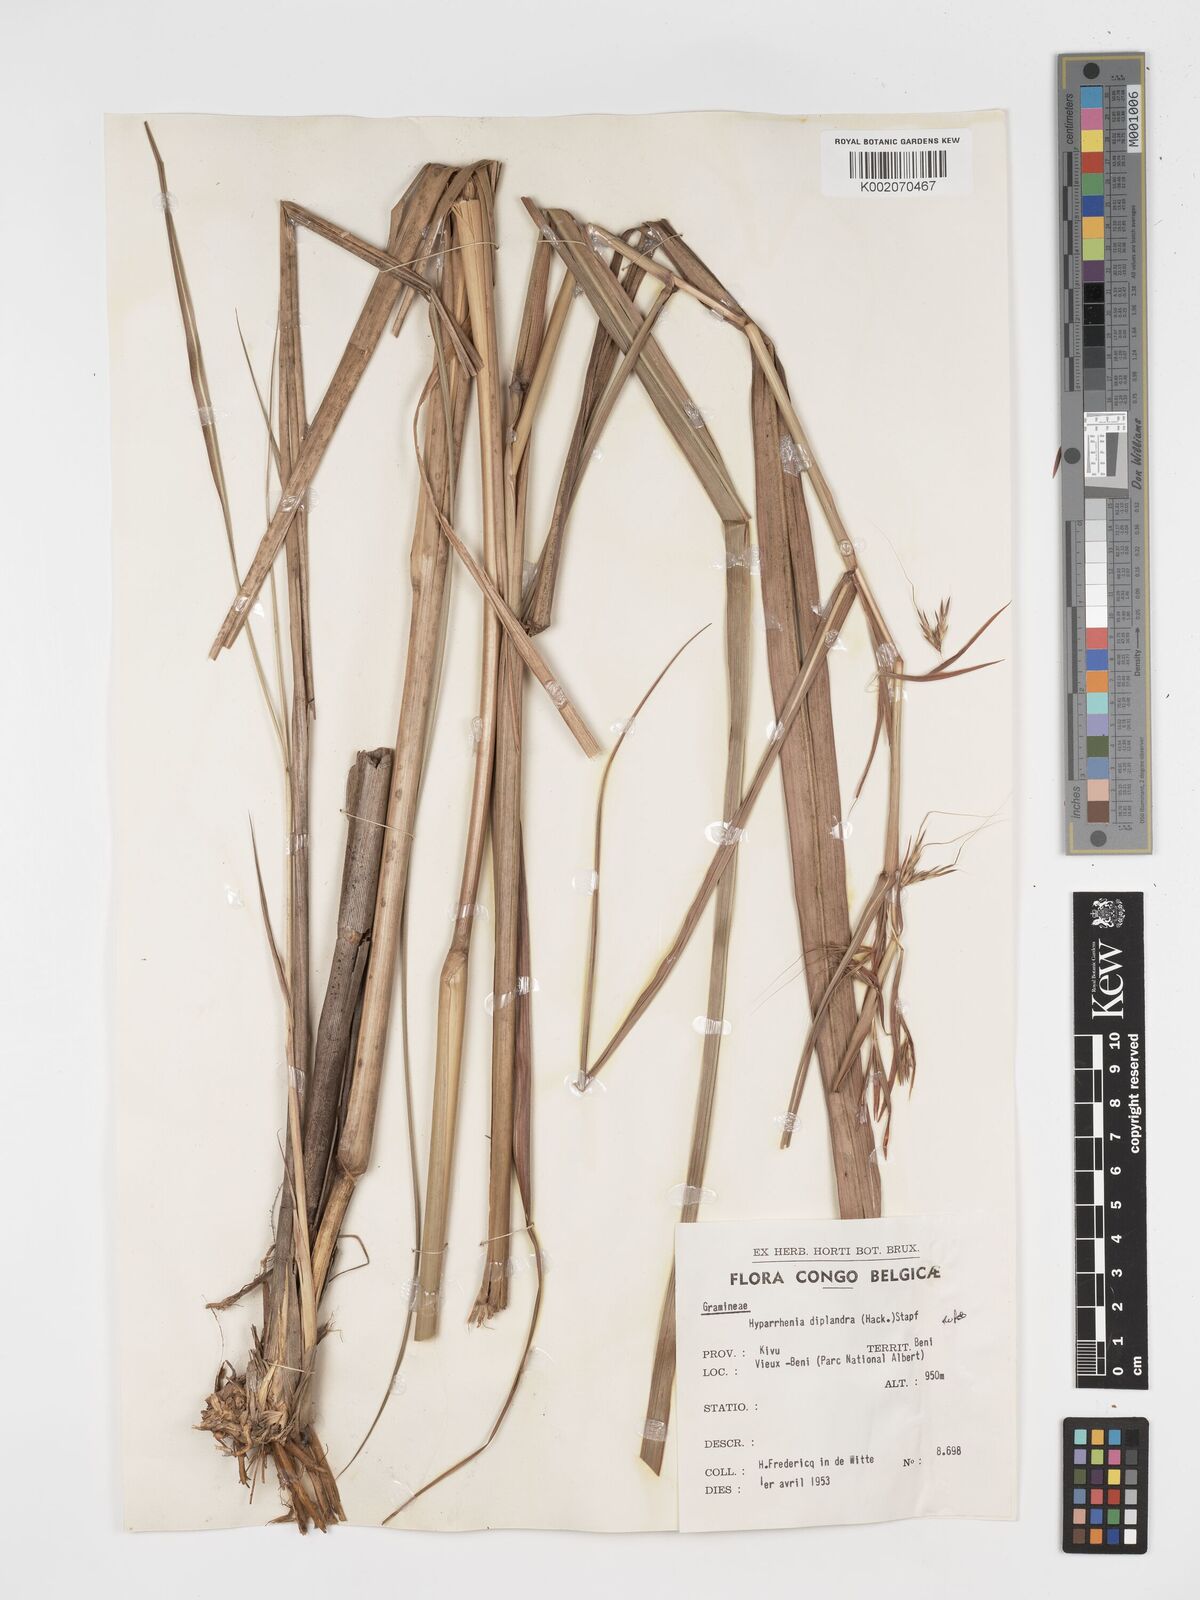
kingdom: Plantae
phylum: Tracheophyta
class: Liliopsida
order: Poales
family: Poaceae
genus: Hyparrhenia
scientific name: Hyparrhenia diplandra
